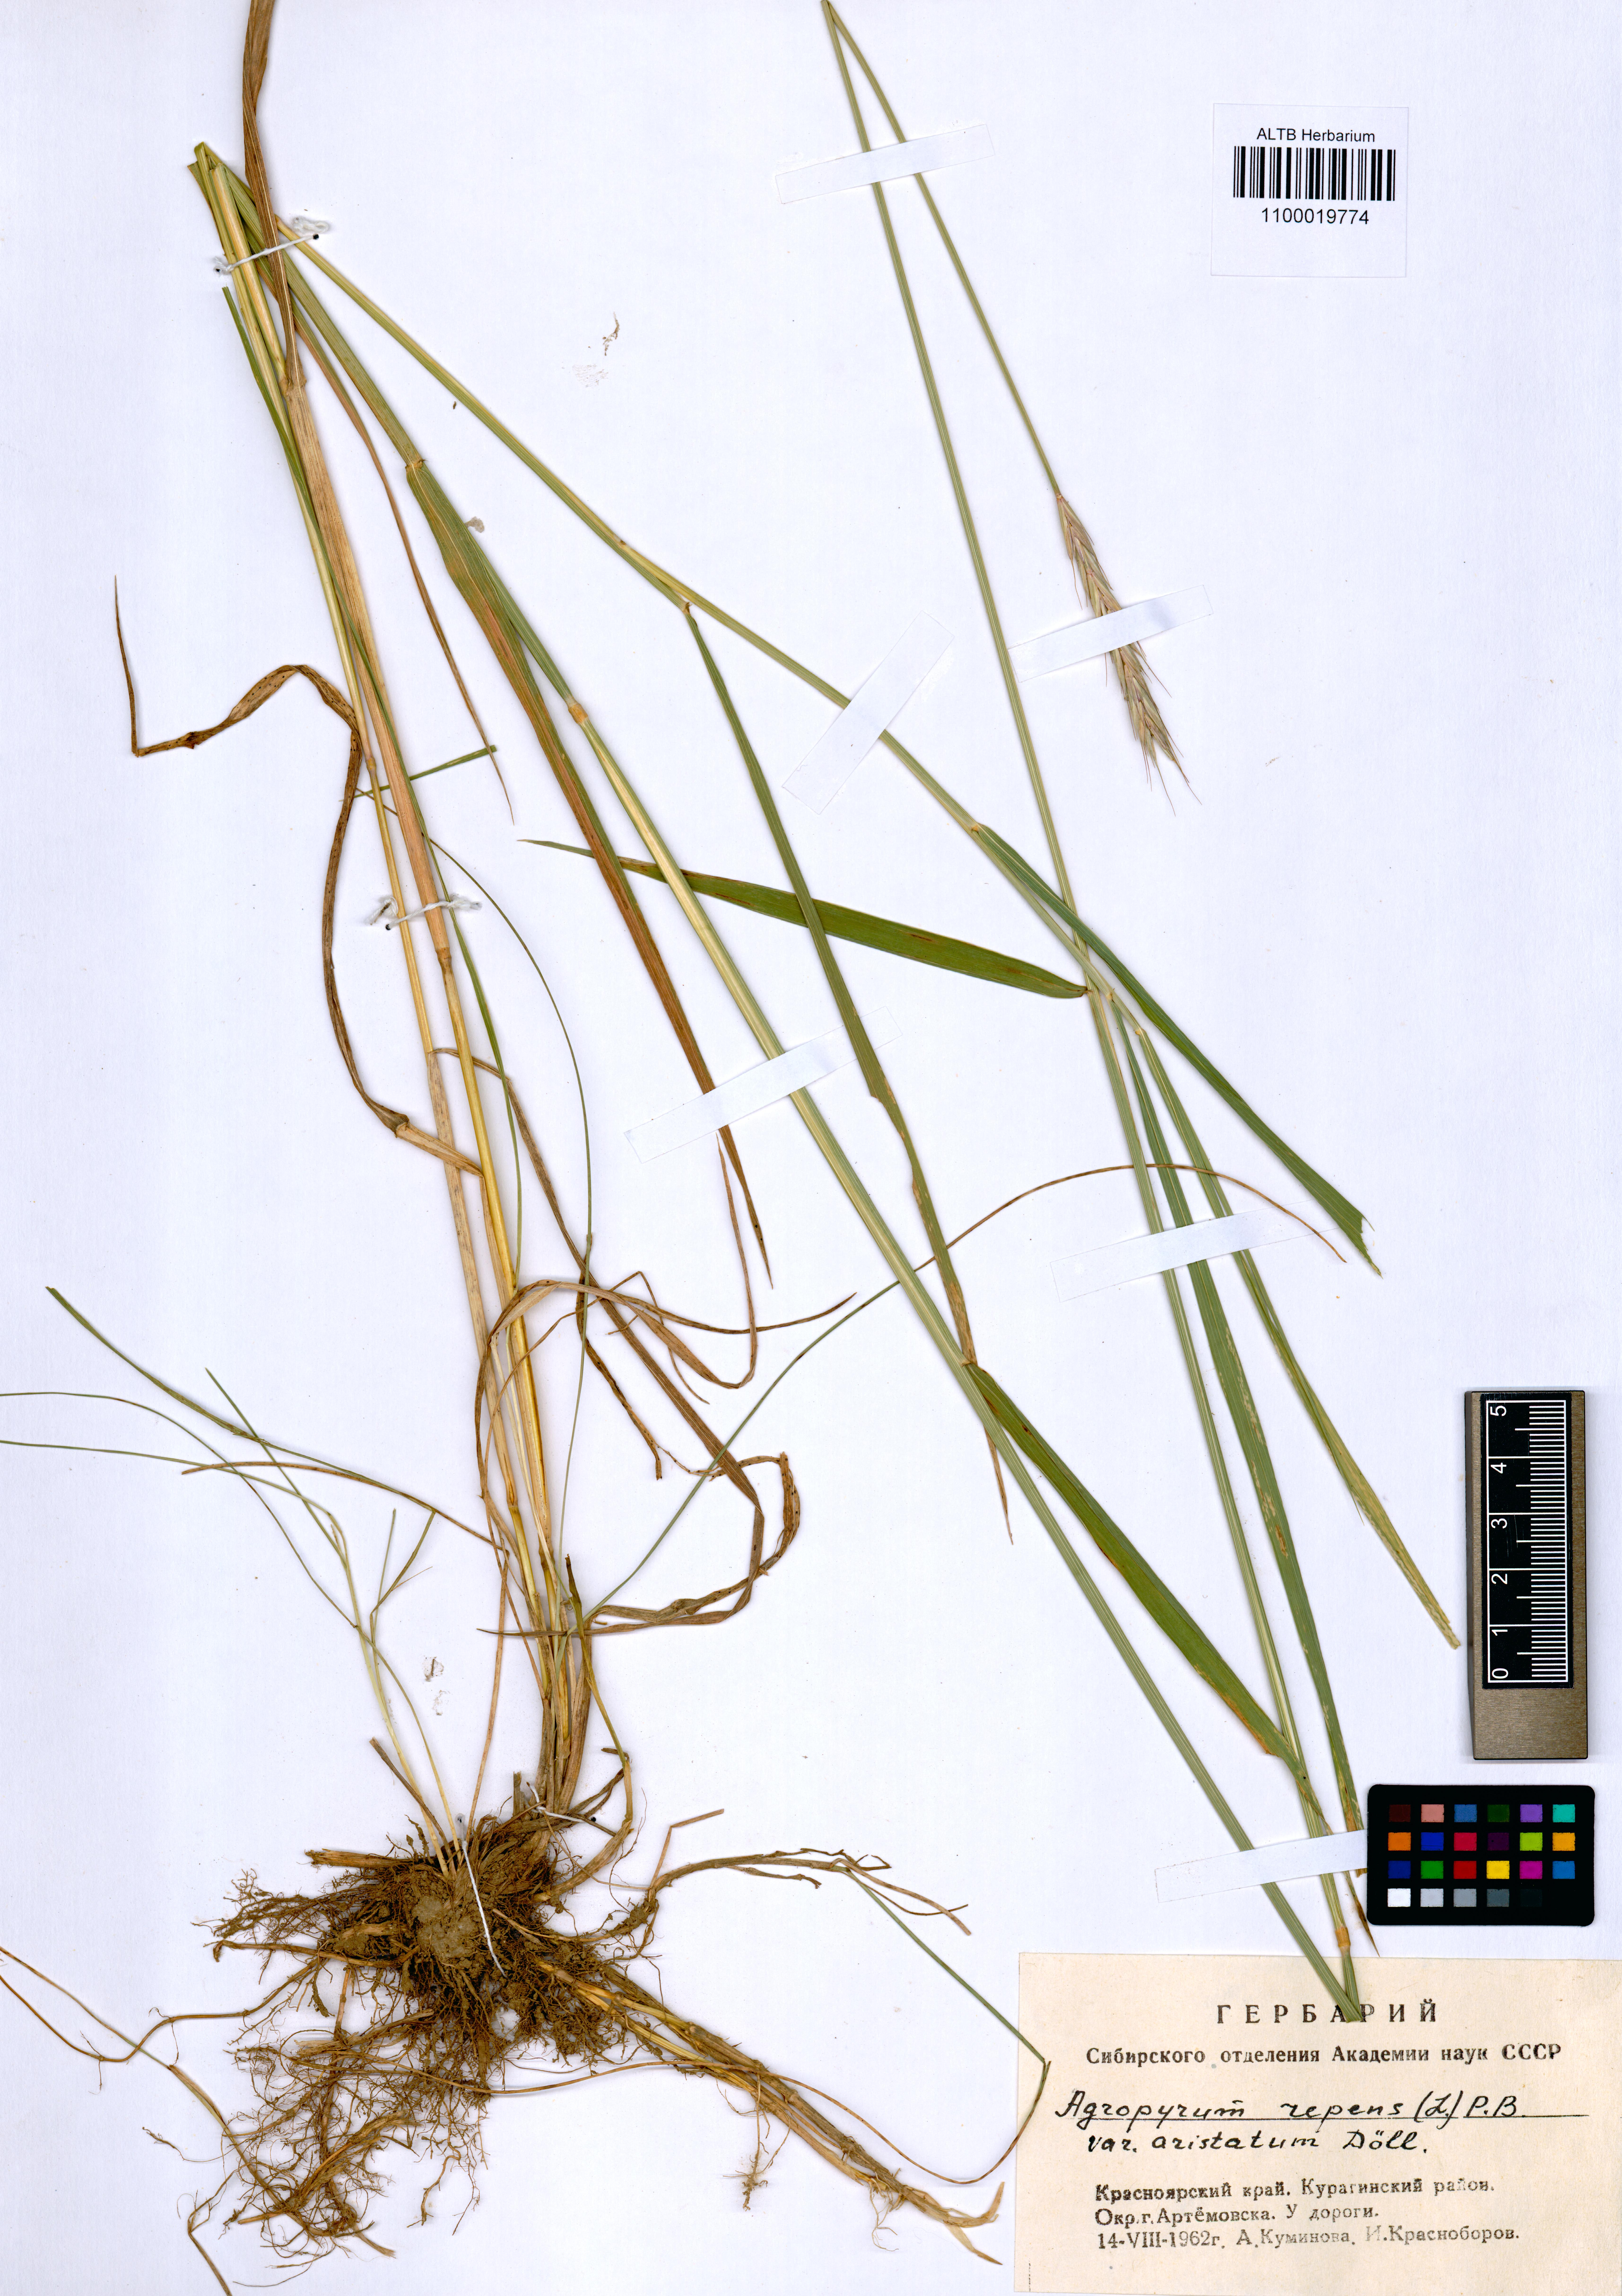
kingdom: Plantae
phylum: Tracheophyta
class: Liliopsida
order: Poales
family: Poaceae
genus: Elymus
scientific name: Elymus repens
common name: Quackgrass
